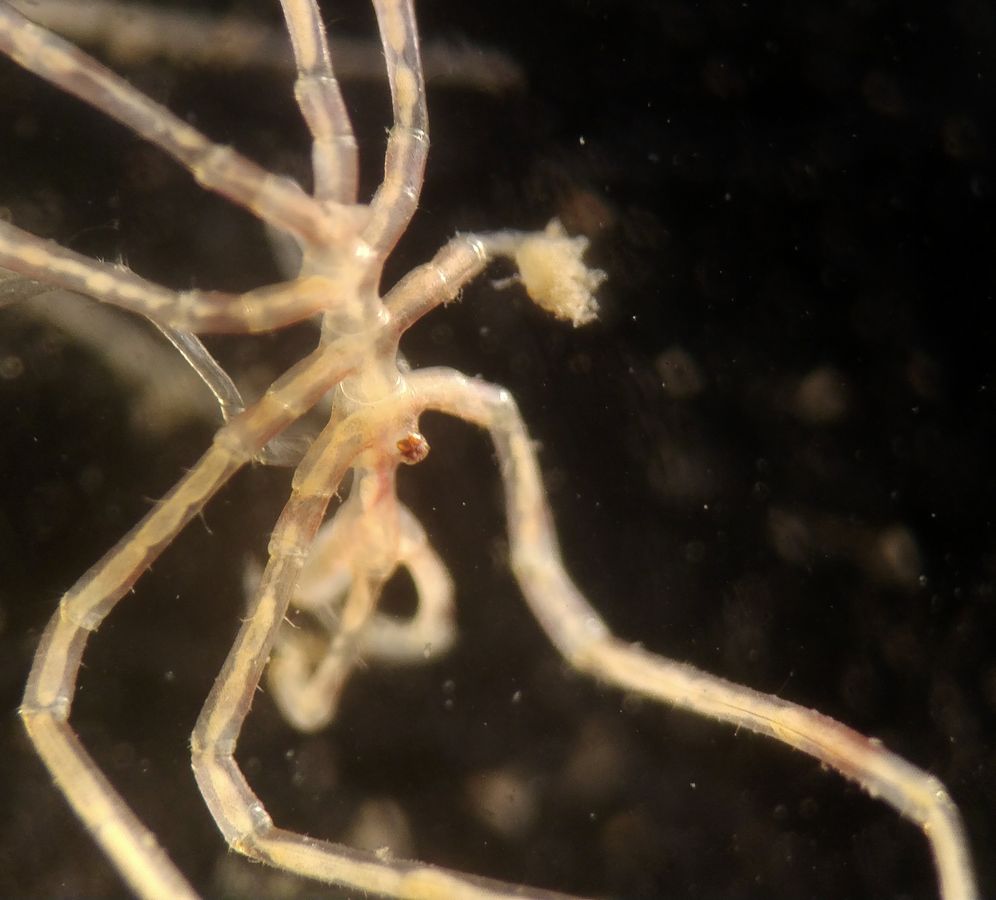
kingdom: Animalia
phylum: Arthropoda
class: Pycnogonida
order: Pantopoda
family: Nymphonidae
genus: Nymphon
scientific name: Nymphon micronyx
